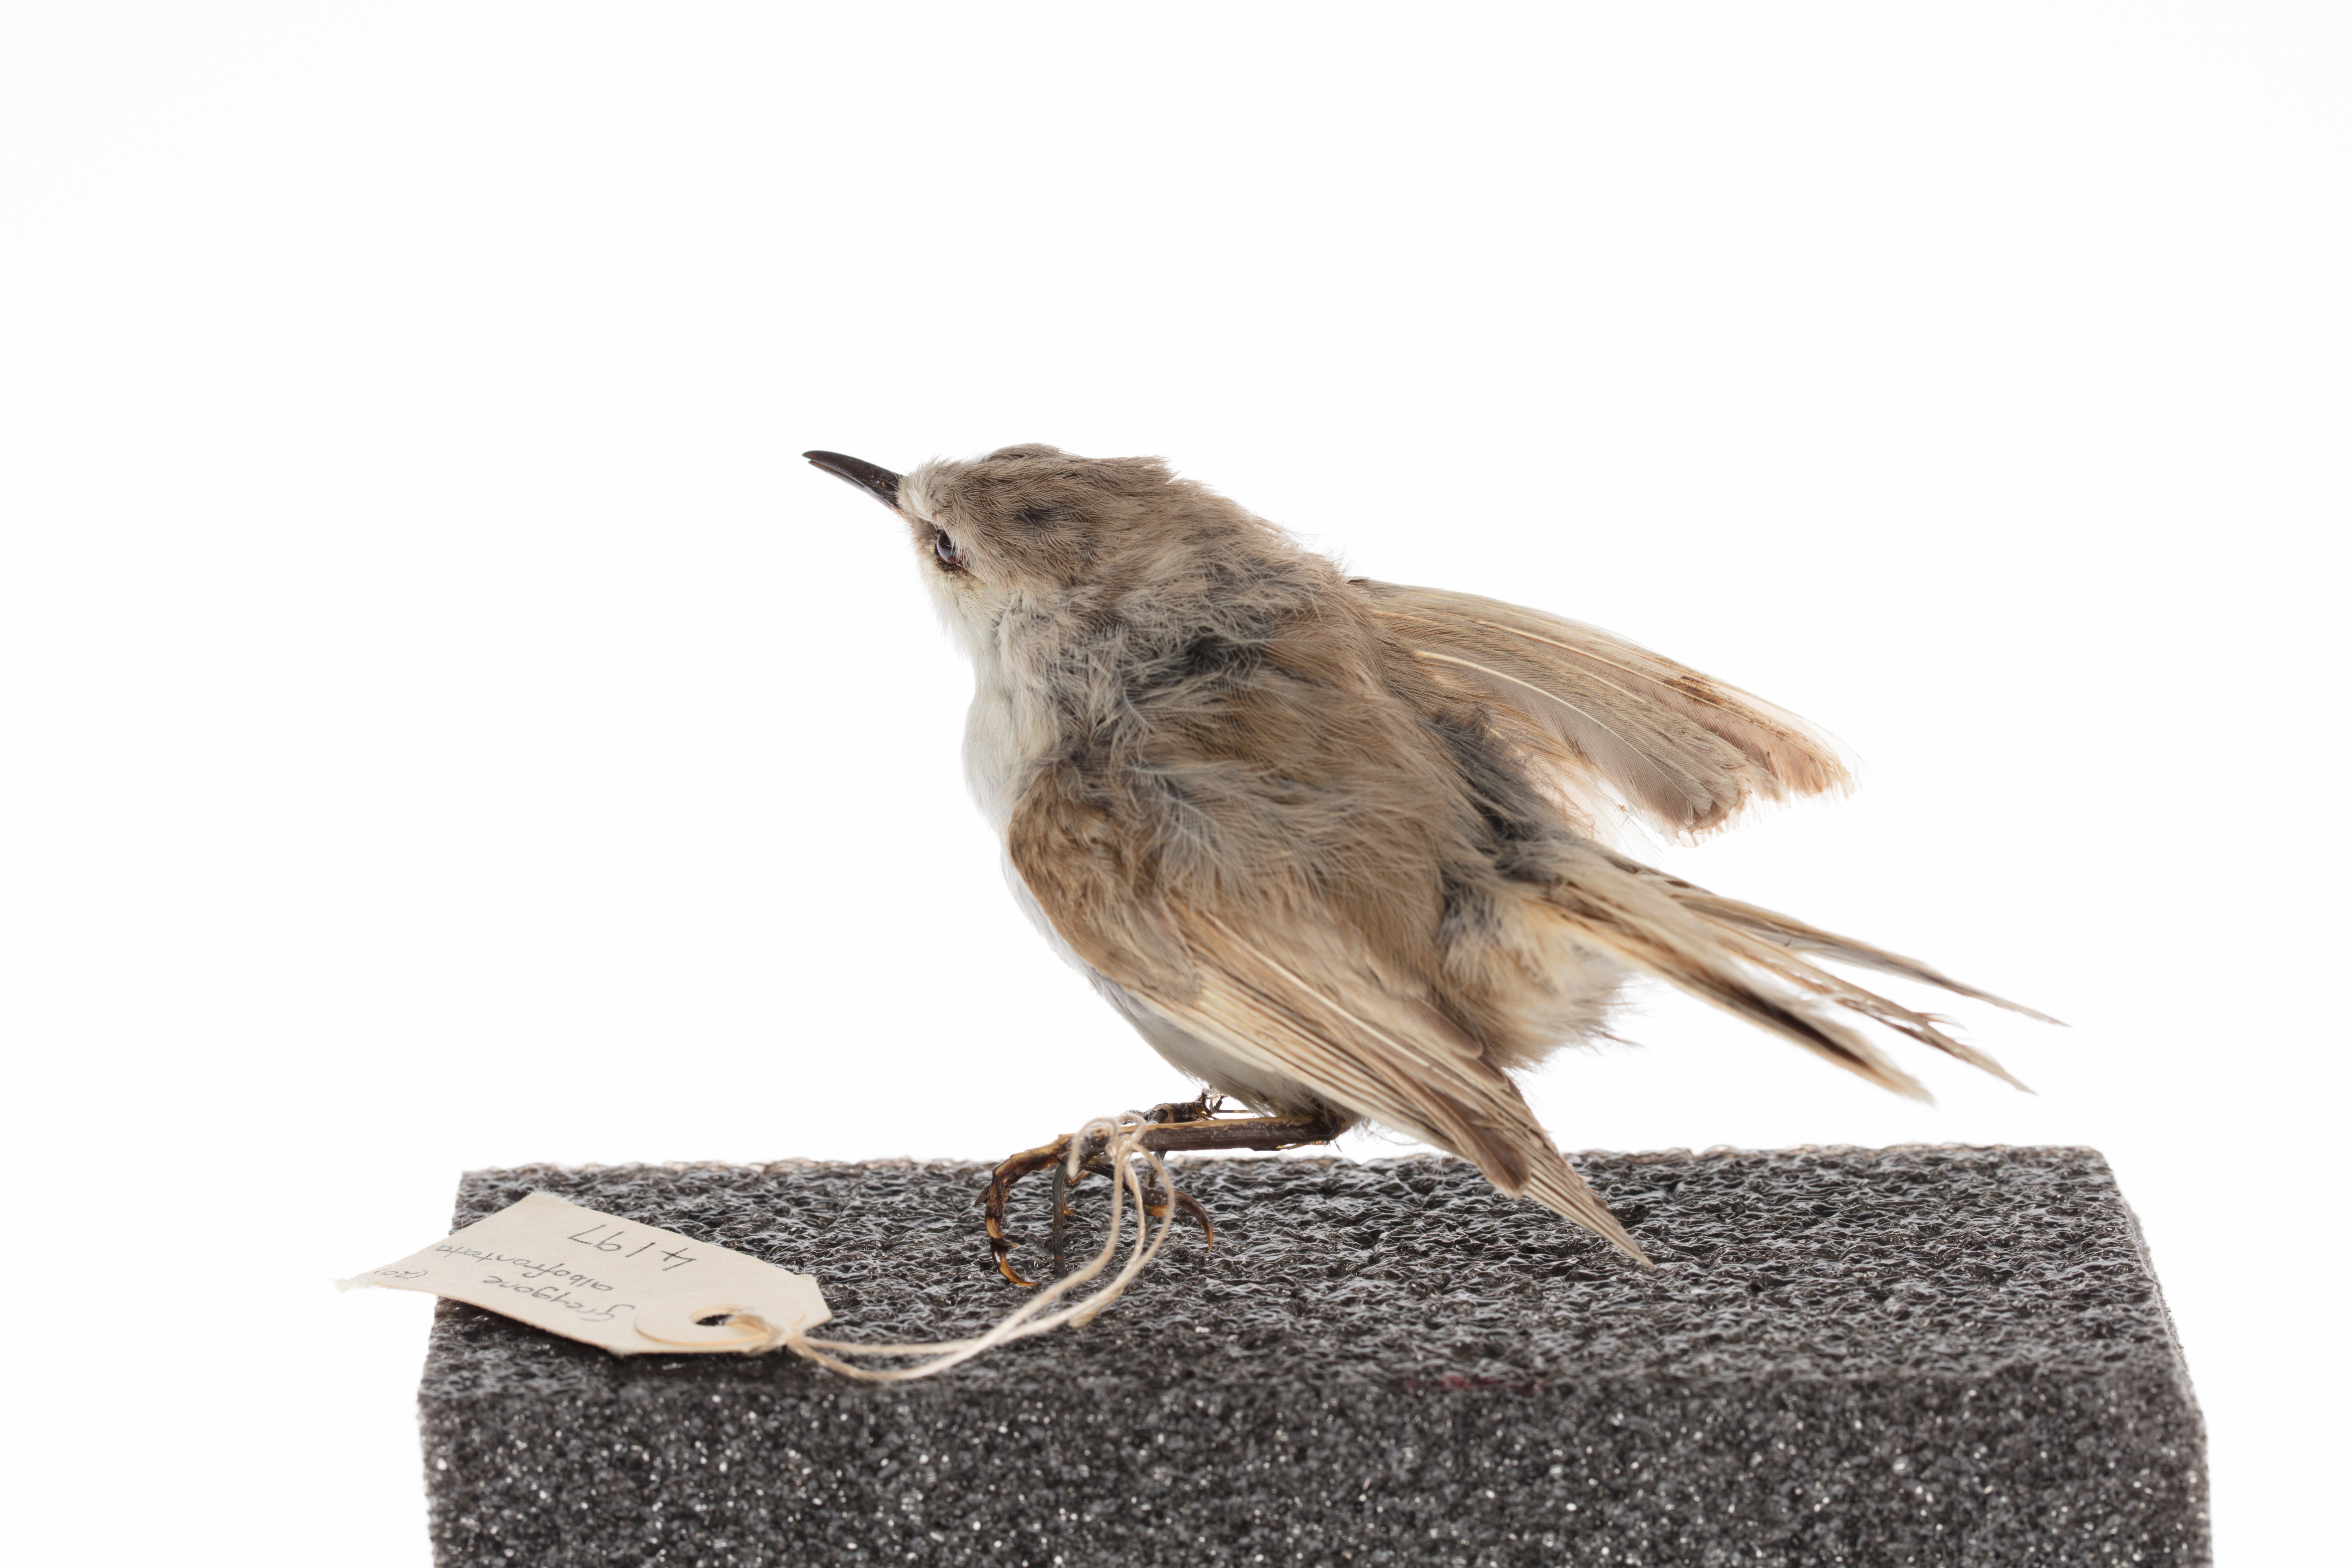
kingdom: Animalia
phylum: Chordata
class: Aves
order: Passeriformes
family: Acanthizidae
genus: Gerygone
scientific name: Gerygone albofrontata
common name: Chatham gerygone
